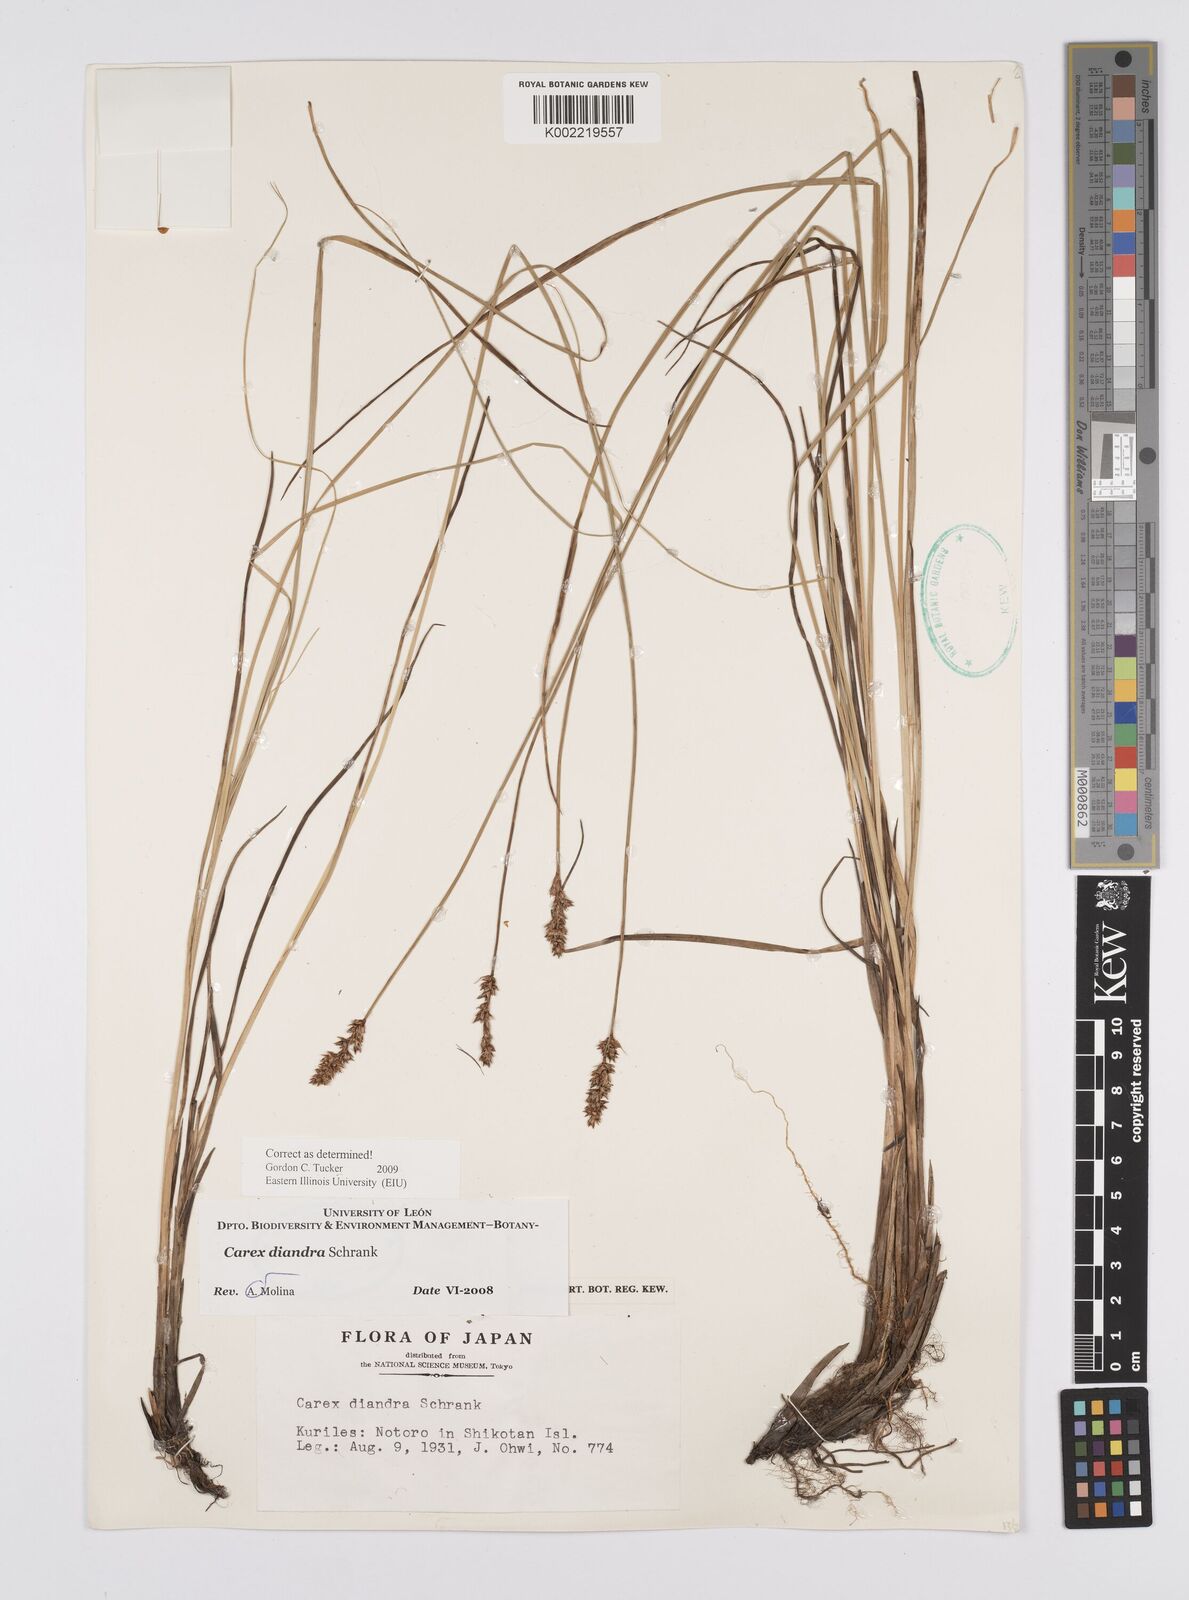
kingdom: Plantae
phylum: Tracheophyta
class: Liliopsida
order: Poales
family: Cyperaceae
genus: Carex
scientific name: Carex diandra
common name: Lesser tussock-sedge
